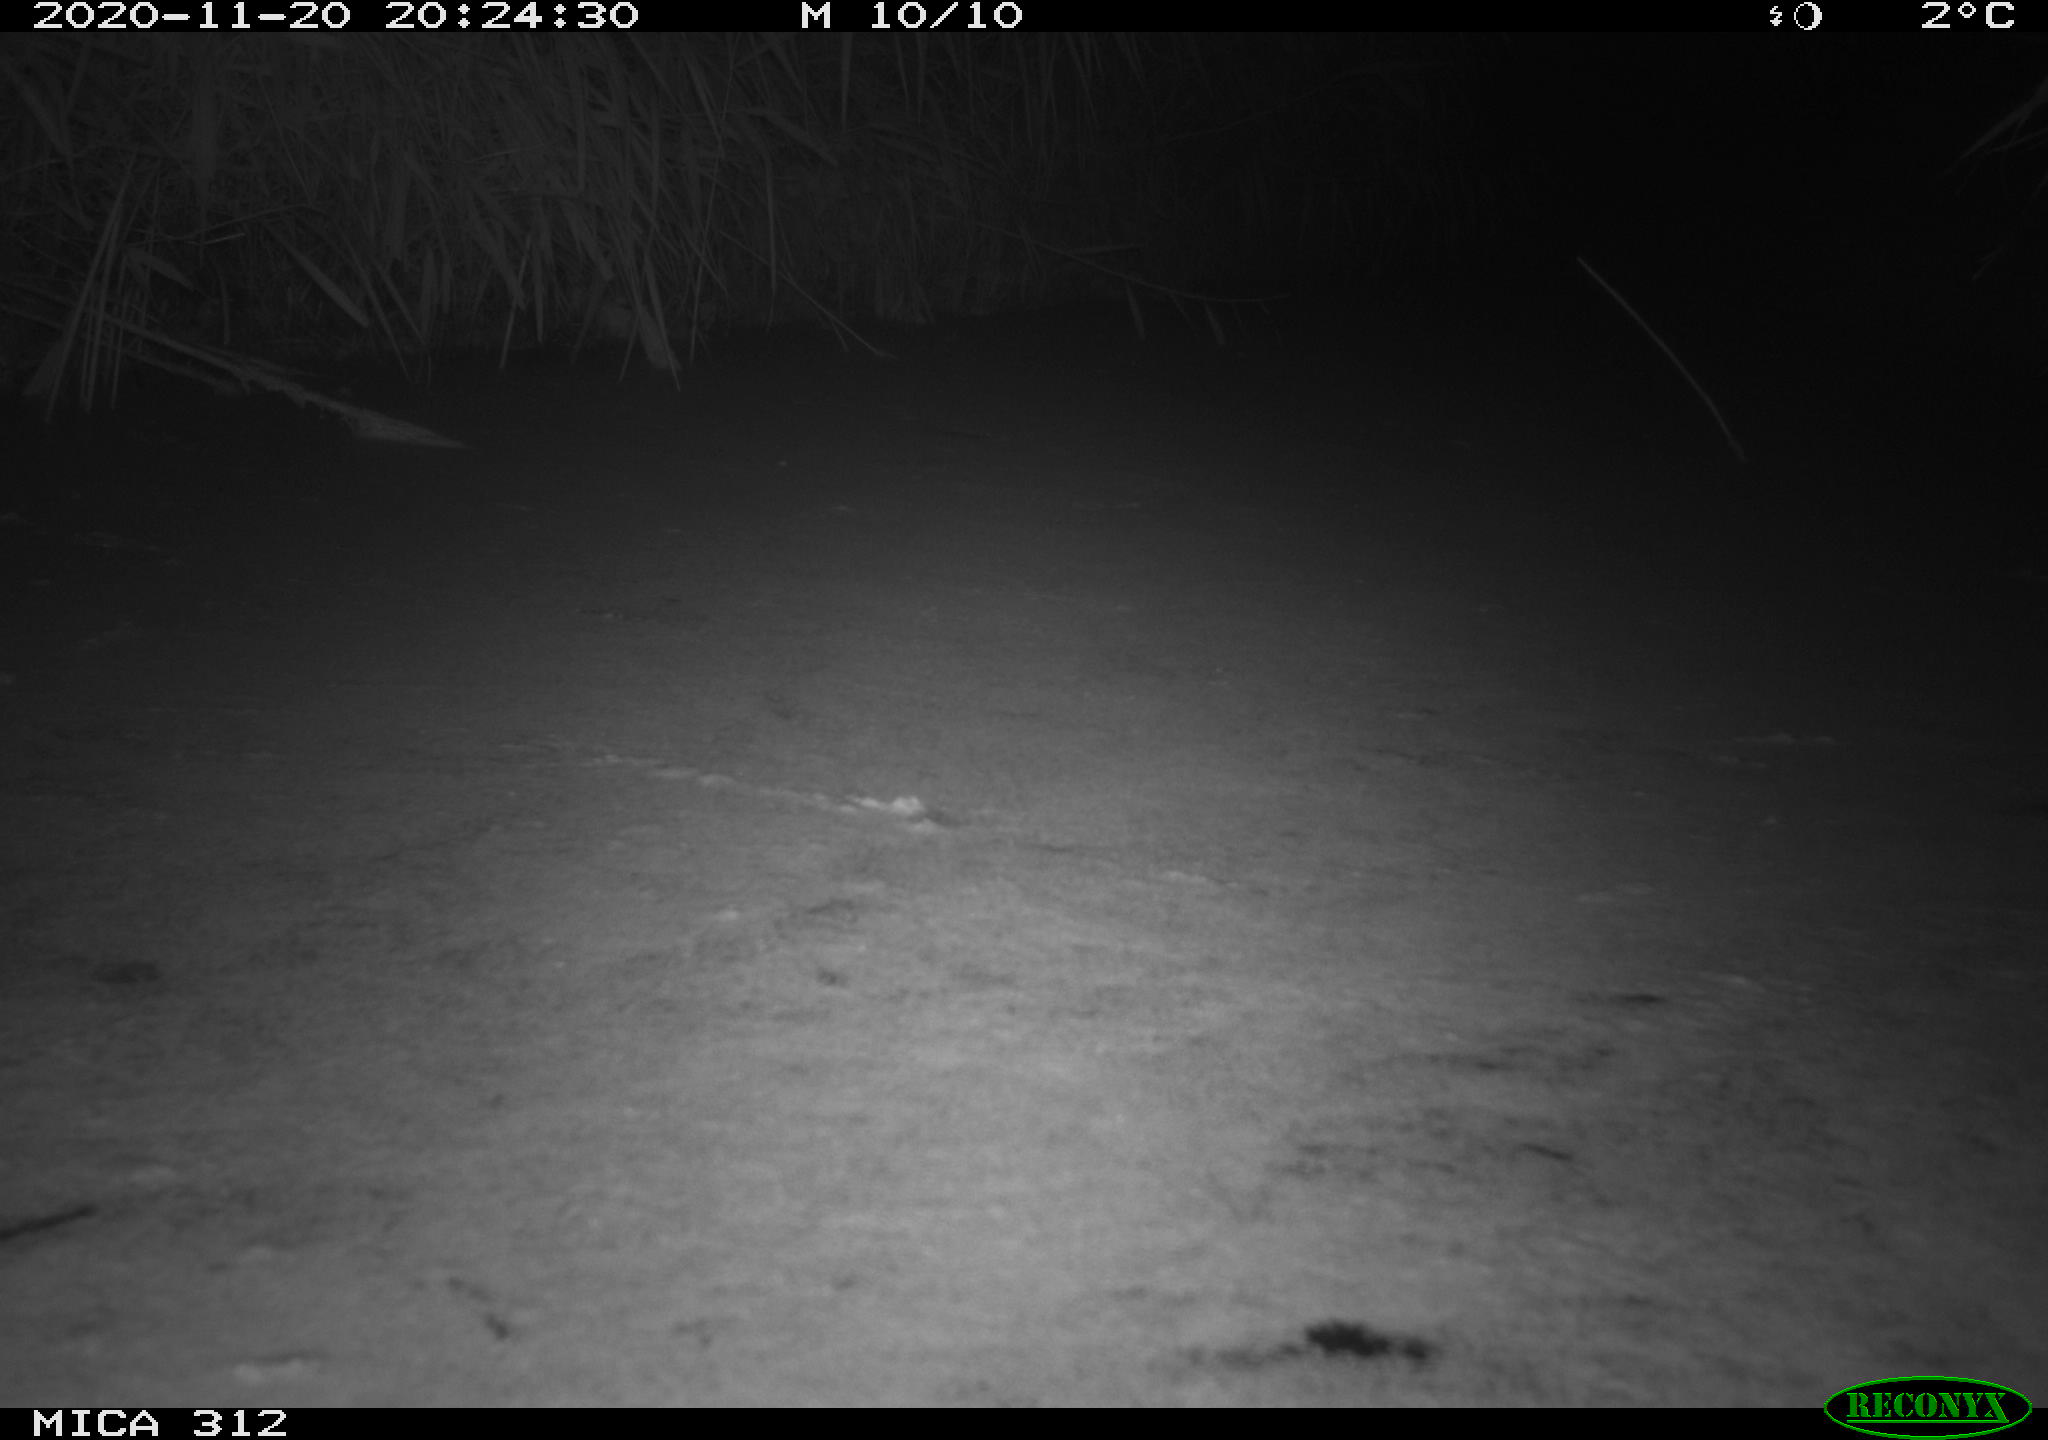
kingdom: Animalia
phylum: Chordata
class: Mammalia
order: Rodentia
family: Muridae
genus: Rattus
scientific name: Rattus norvegicus
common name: Brown rat
